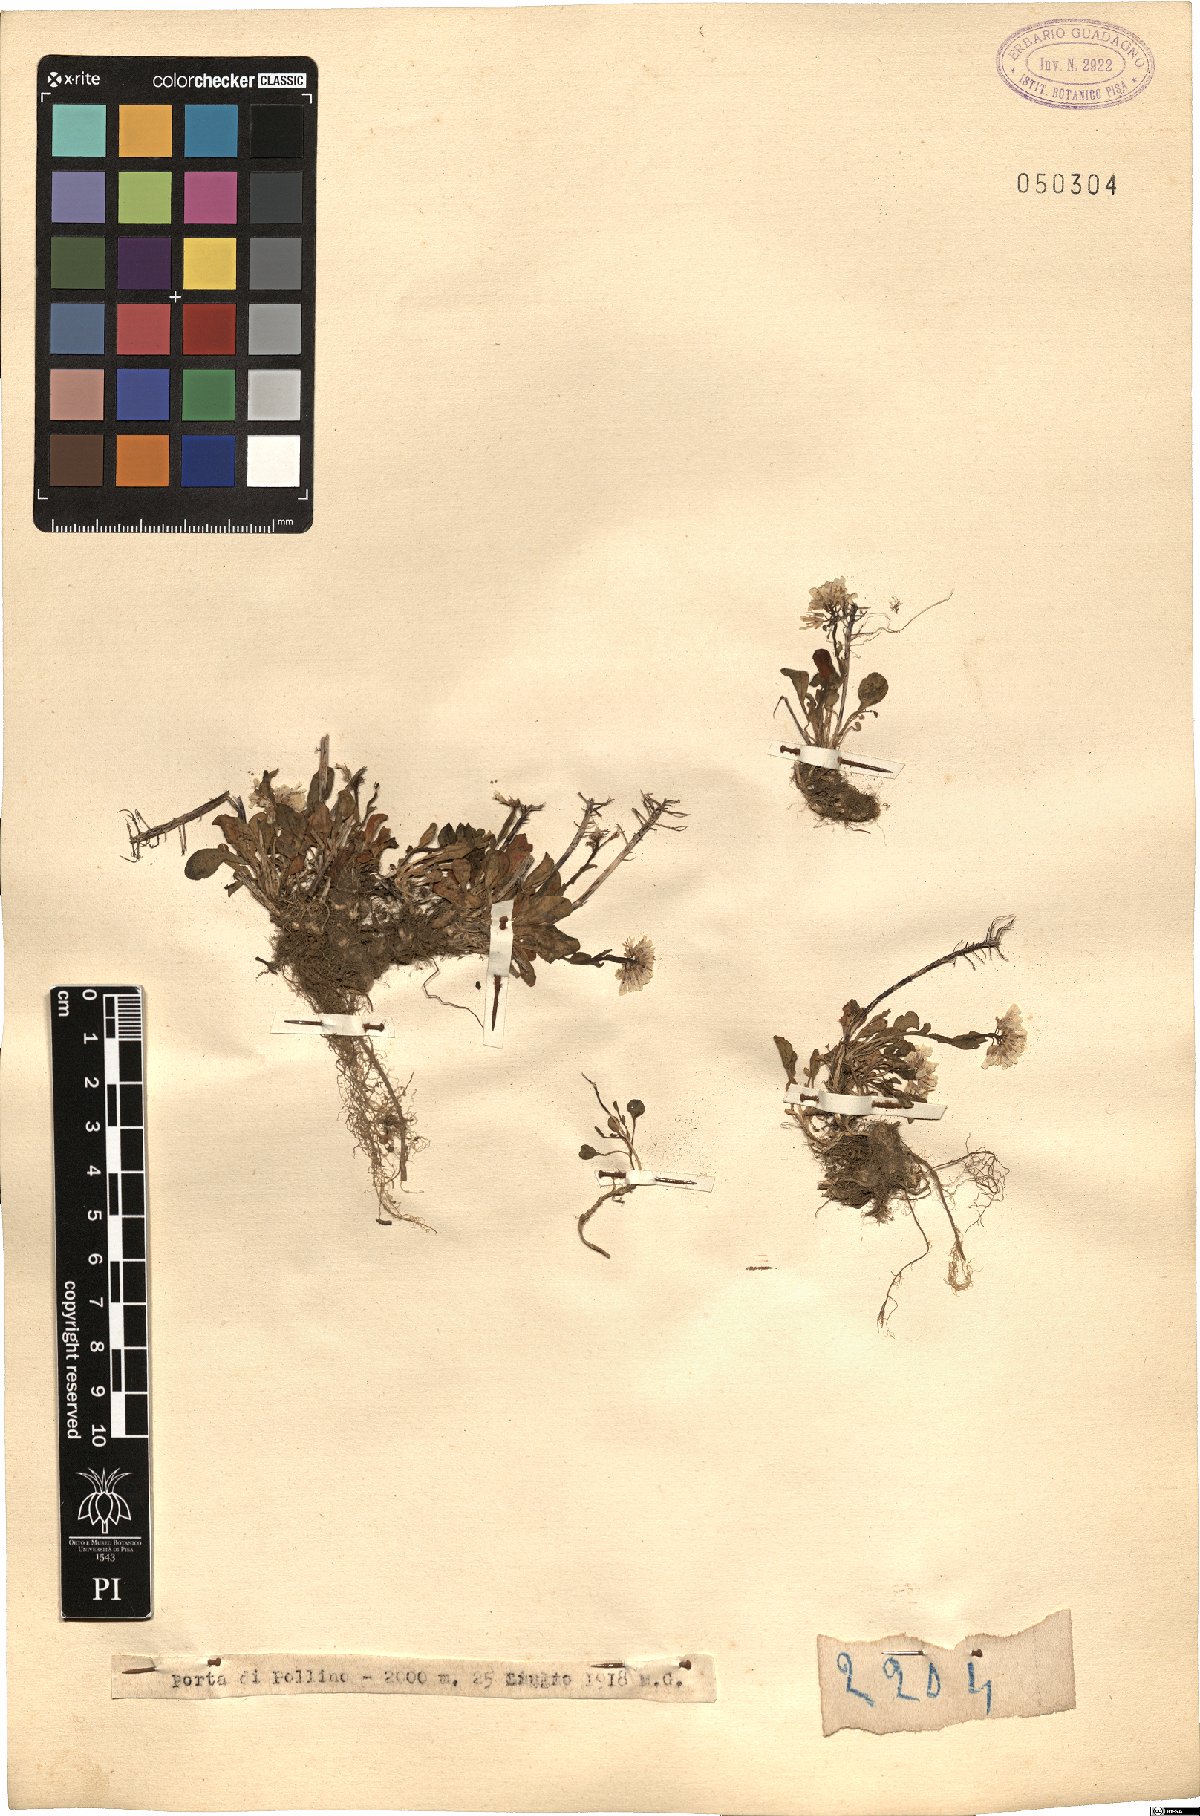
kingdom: Plantae
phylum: Tracheophyta
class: Magnoliopsida
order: Brassicales
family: Brassicaceae
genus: Thlaspi
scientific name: Thlaspi
